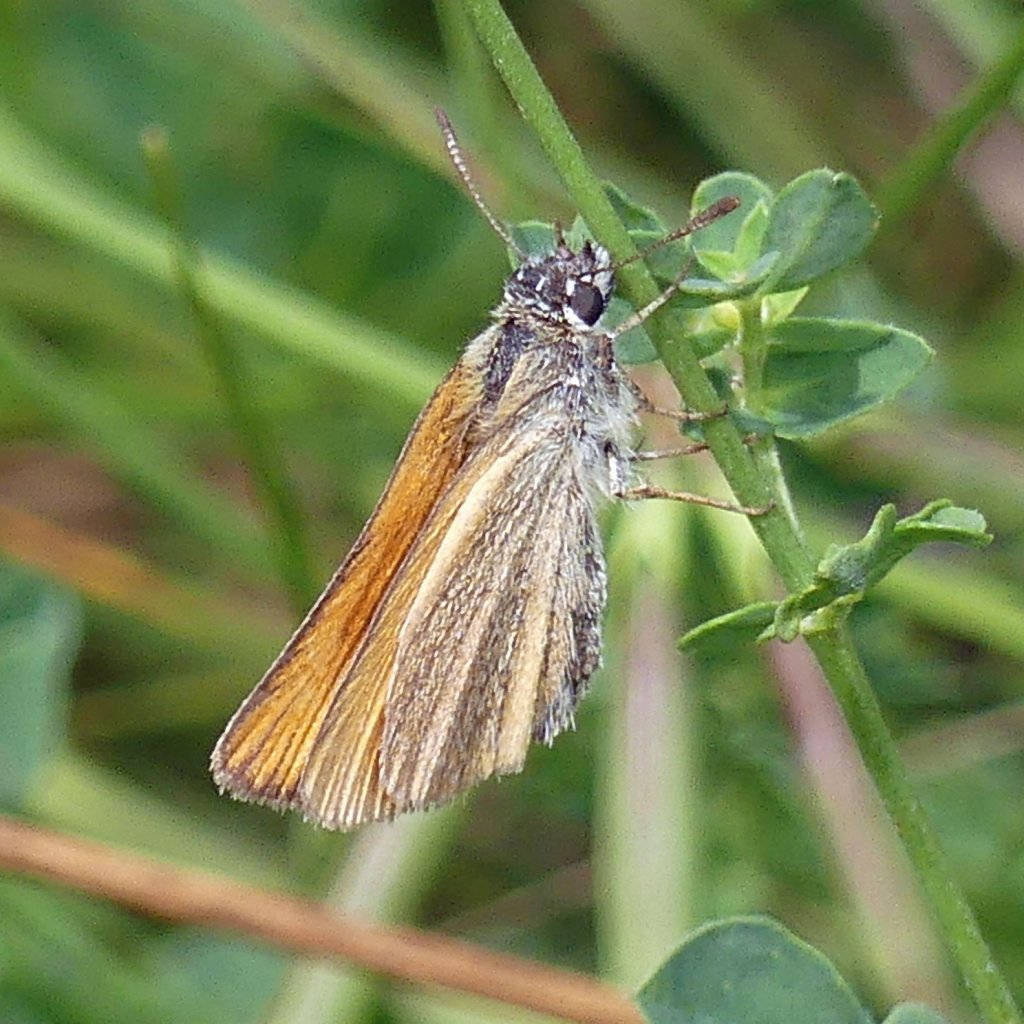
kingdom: Animalia
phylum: Arthropoda
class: Insecta
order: Lepidoptera
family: Hesperiidae
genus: Thymelicus
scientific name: Thymelicus lineola
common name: European Skipper
